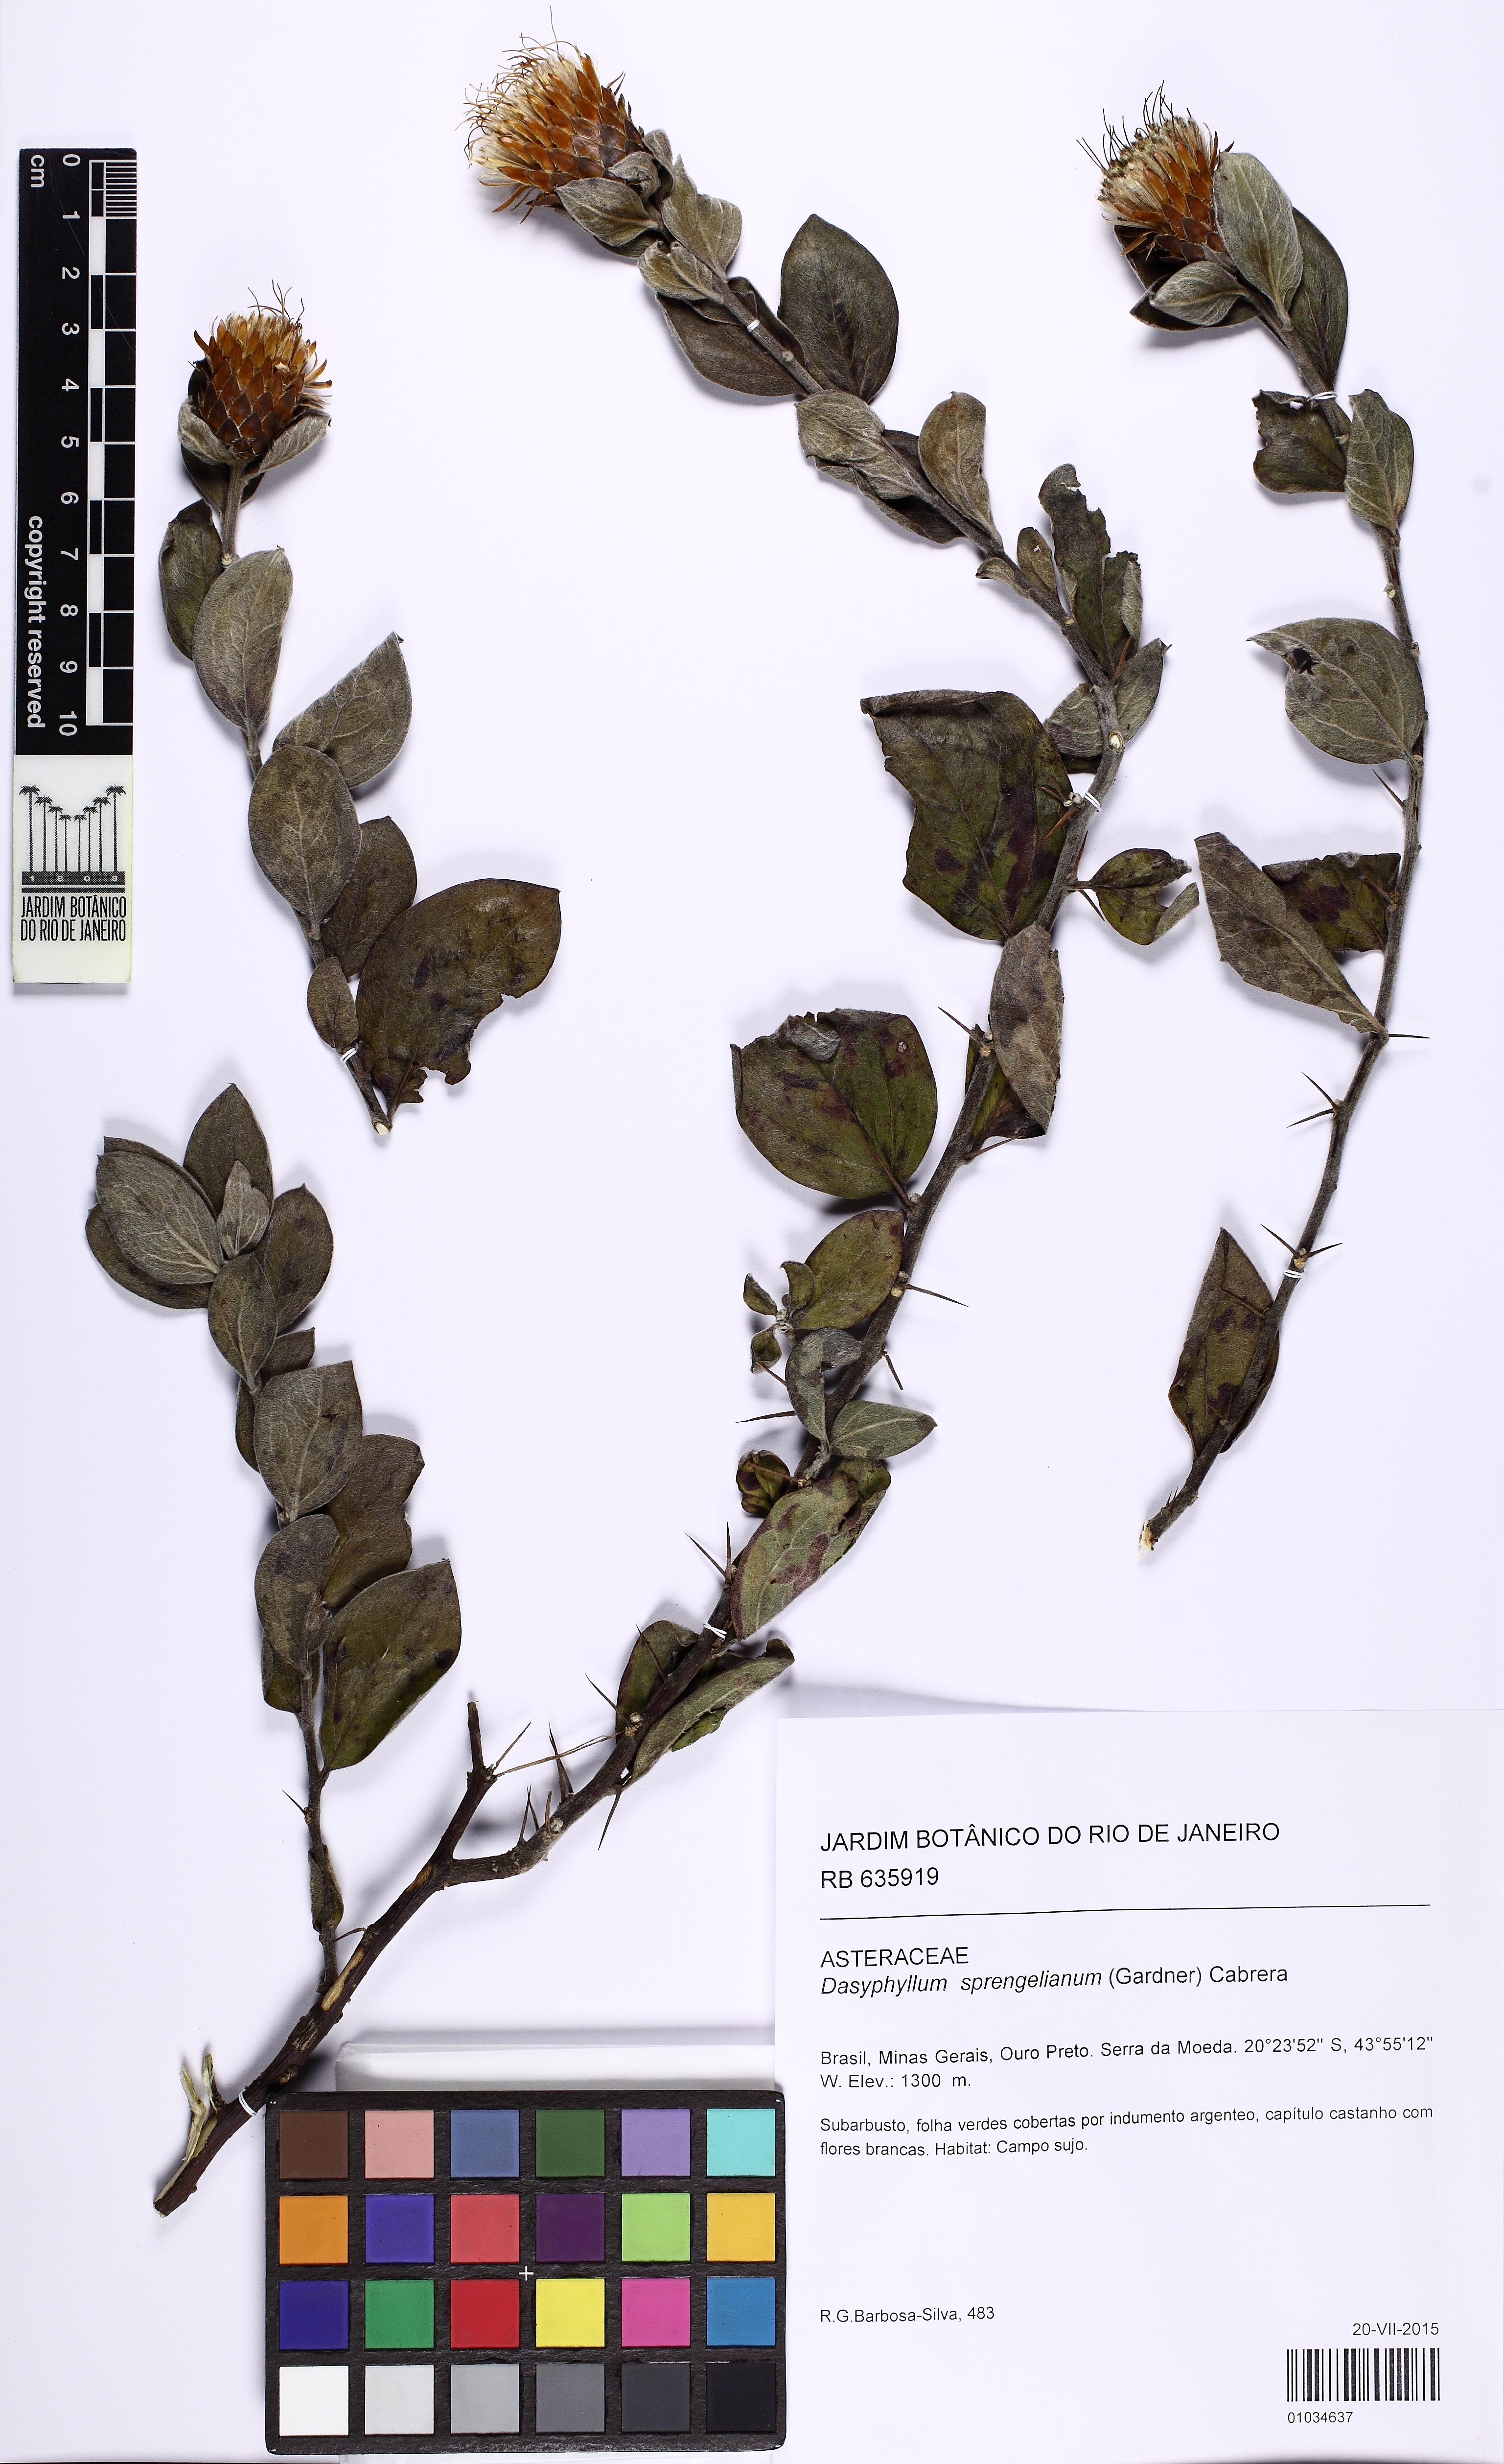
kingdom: Plantae
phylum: Tracheophyta
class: Magnoliopsida
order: Asterales
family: Asteraceae
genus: Dasyphyllum
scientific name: Dasyphyllum sprengelianum
